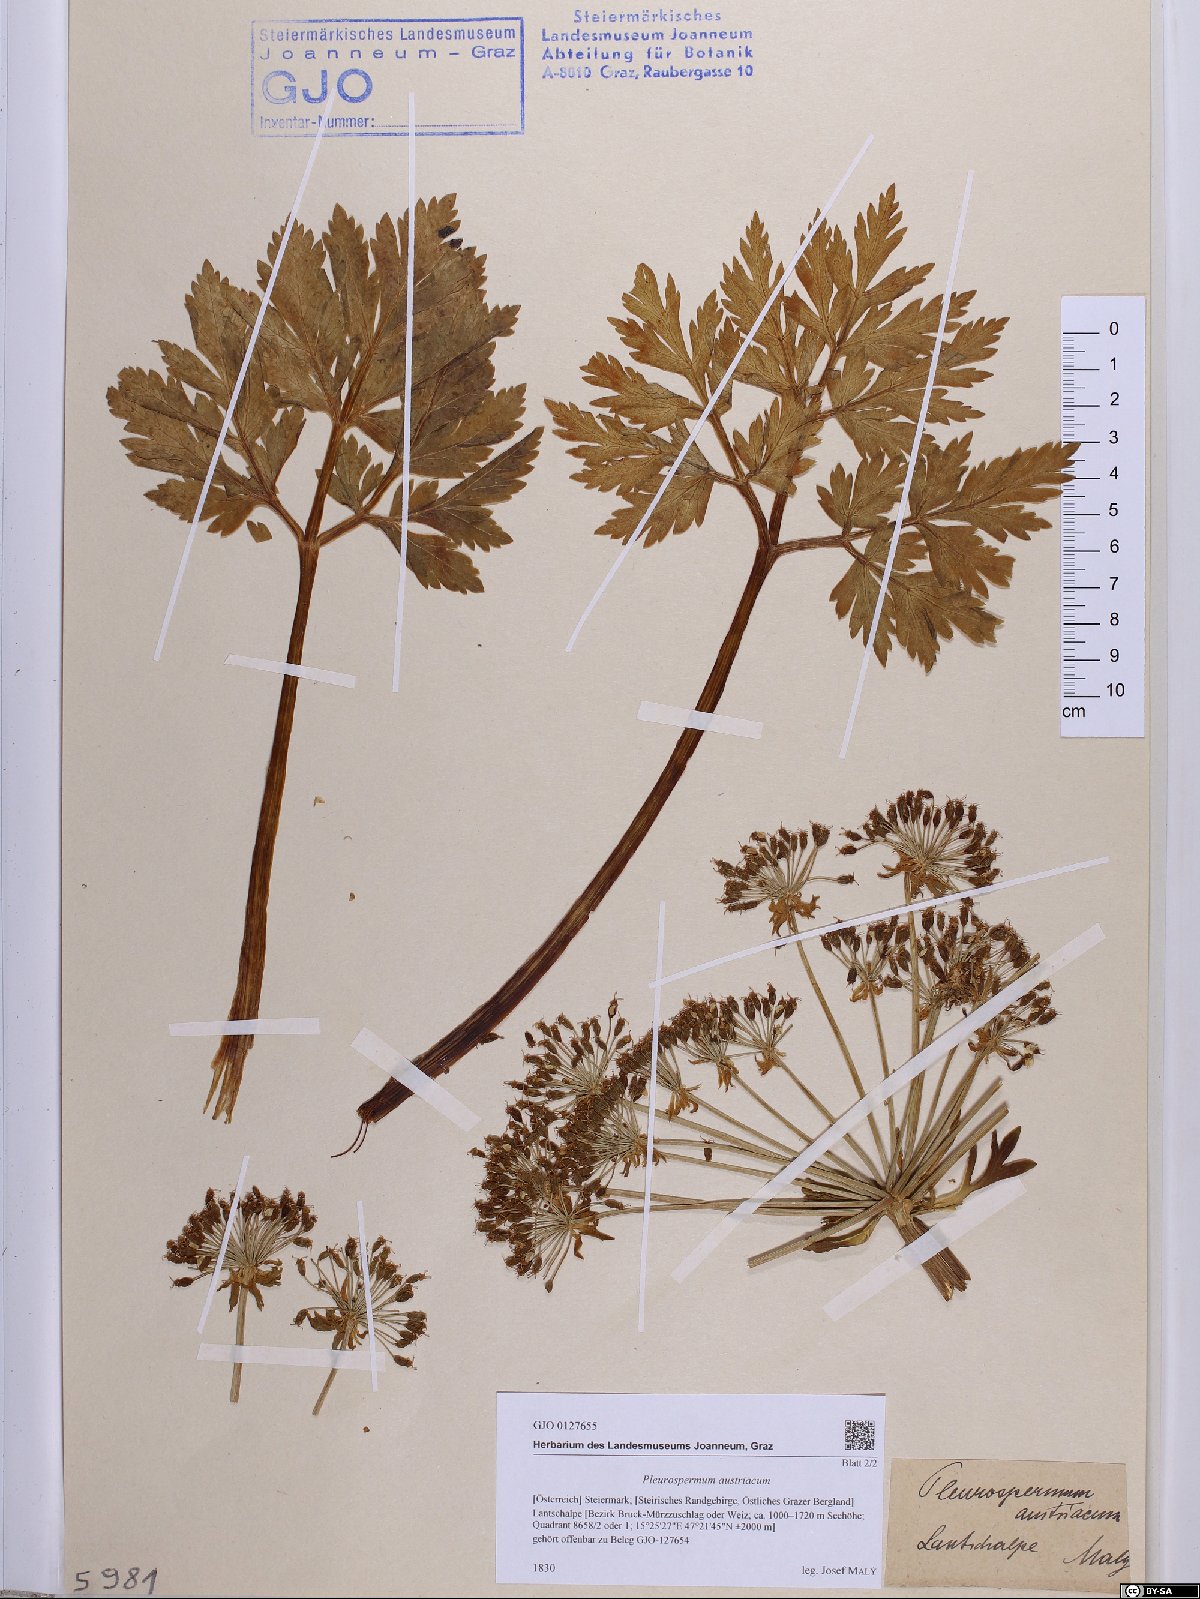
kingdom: Plantae
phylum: Tracheophyta
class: Magnoliopsida
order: Apiales
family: Apiaceae
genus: Pleurospermum
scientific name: Pleurospermum austriacum
